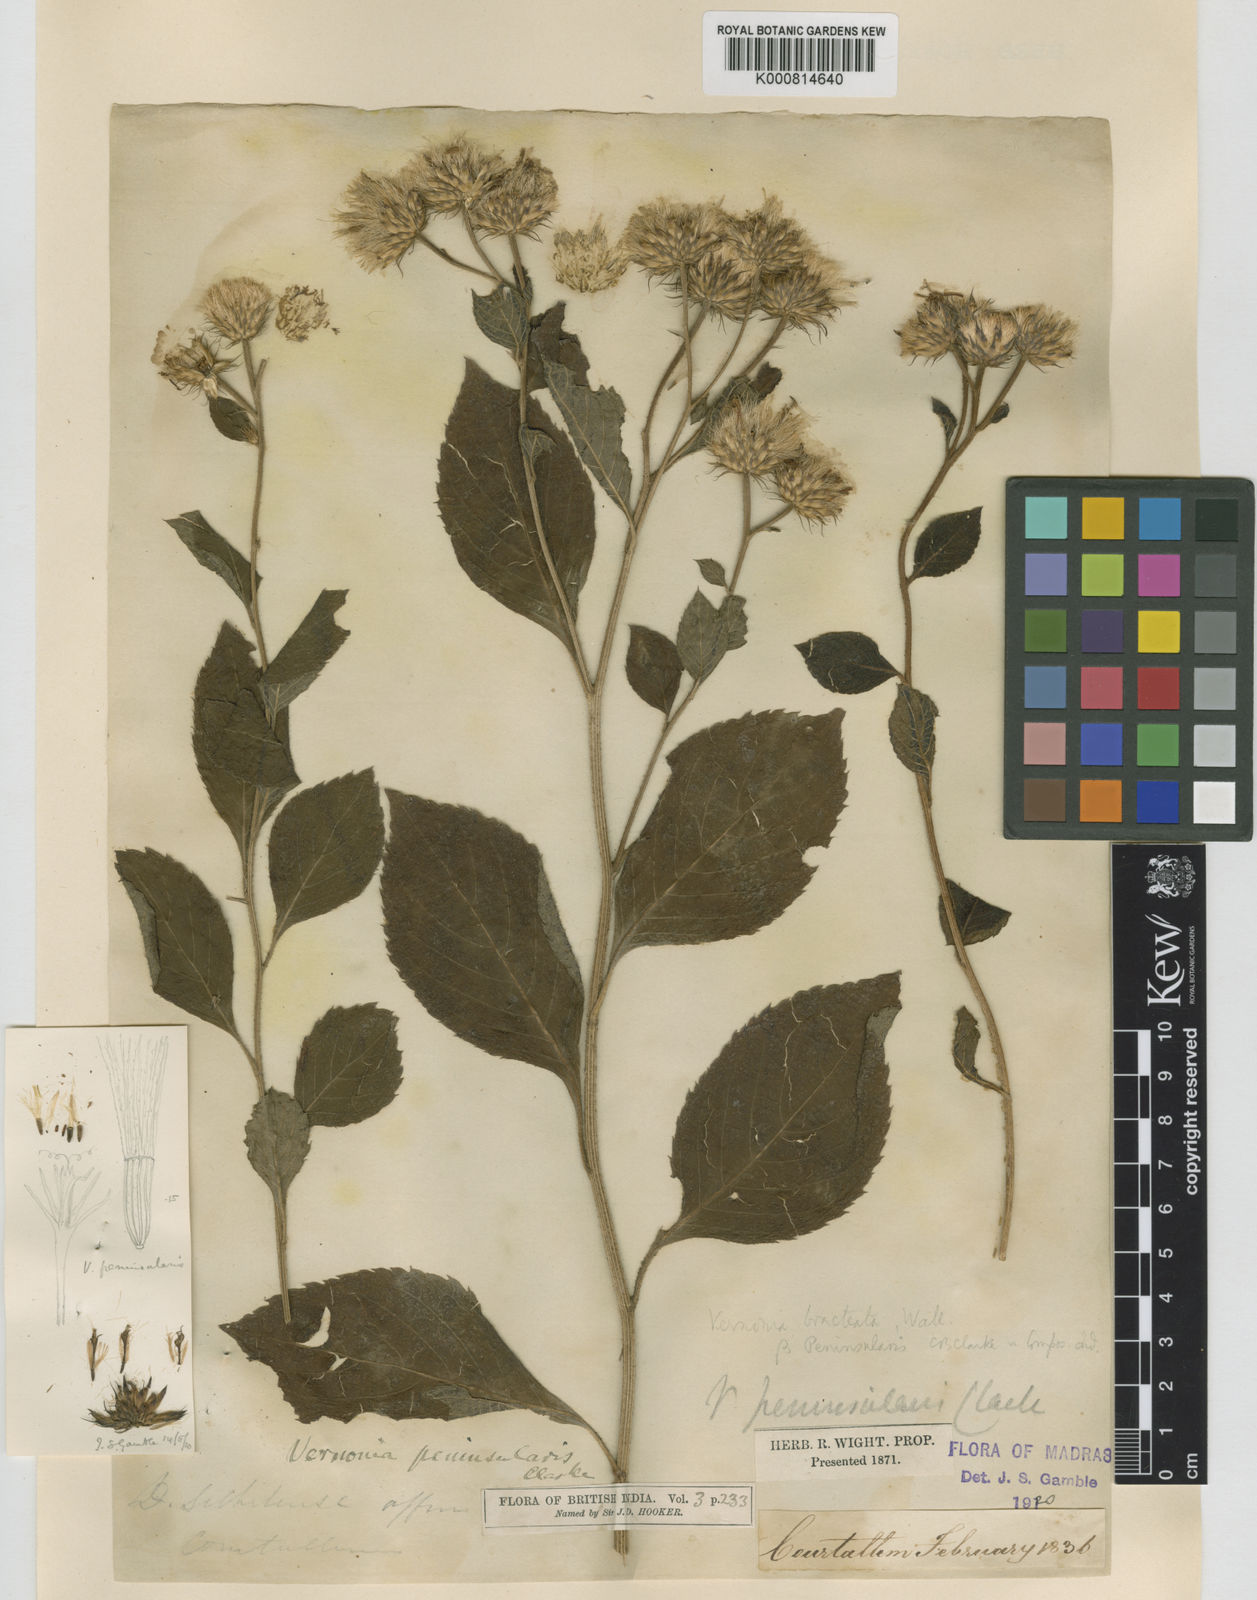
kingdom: Plantae
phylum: Tracheophyta
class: Magnoliopsida
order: Asterales
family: Asteraceae
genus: Acilepis
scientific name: Acilepis peninsularis
